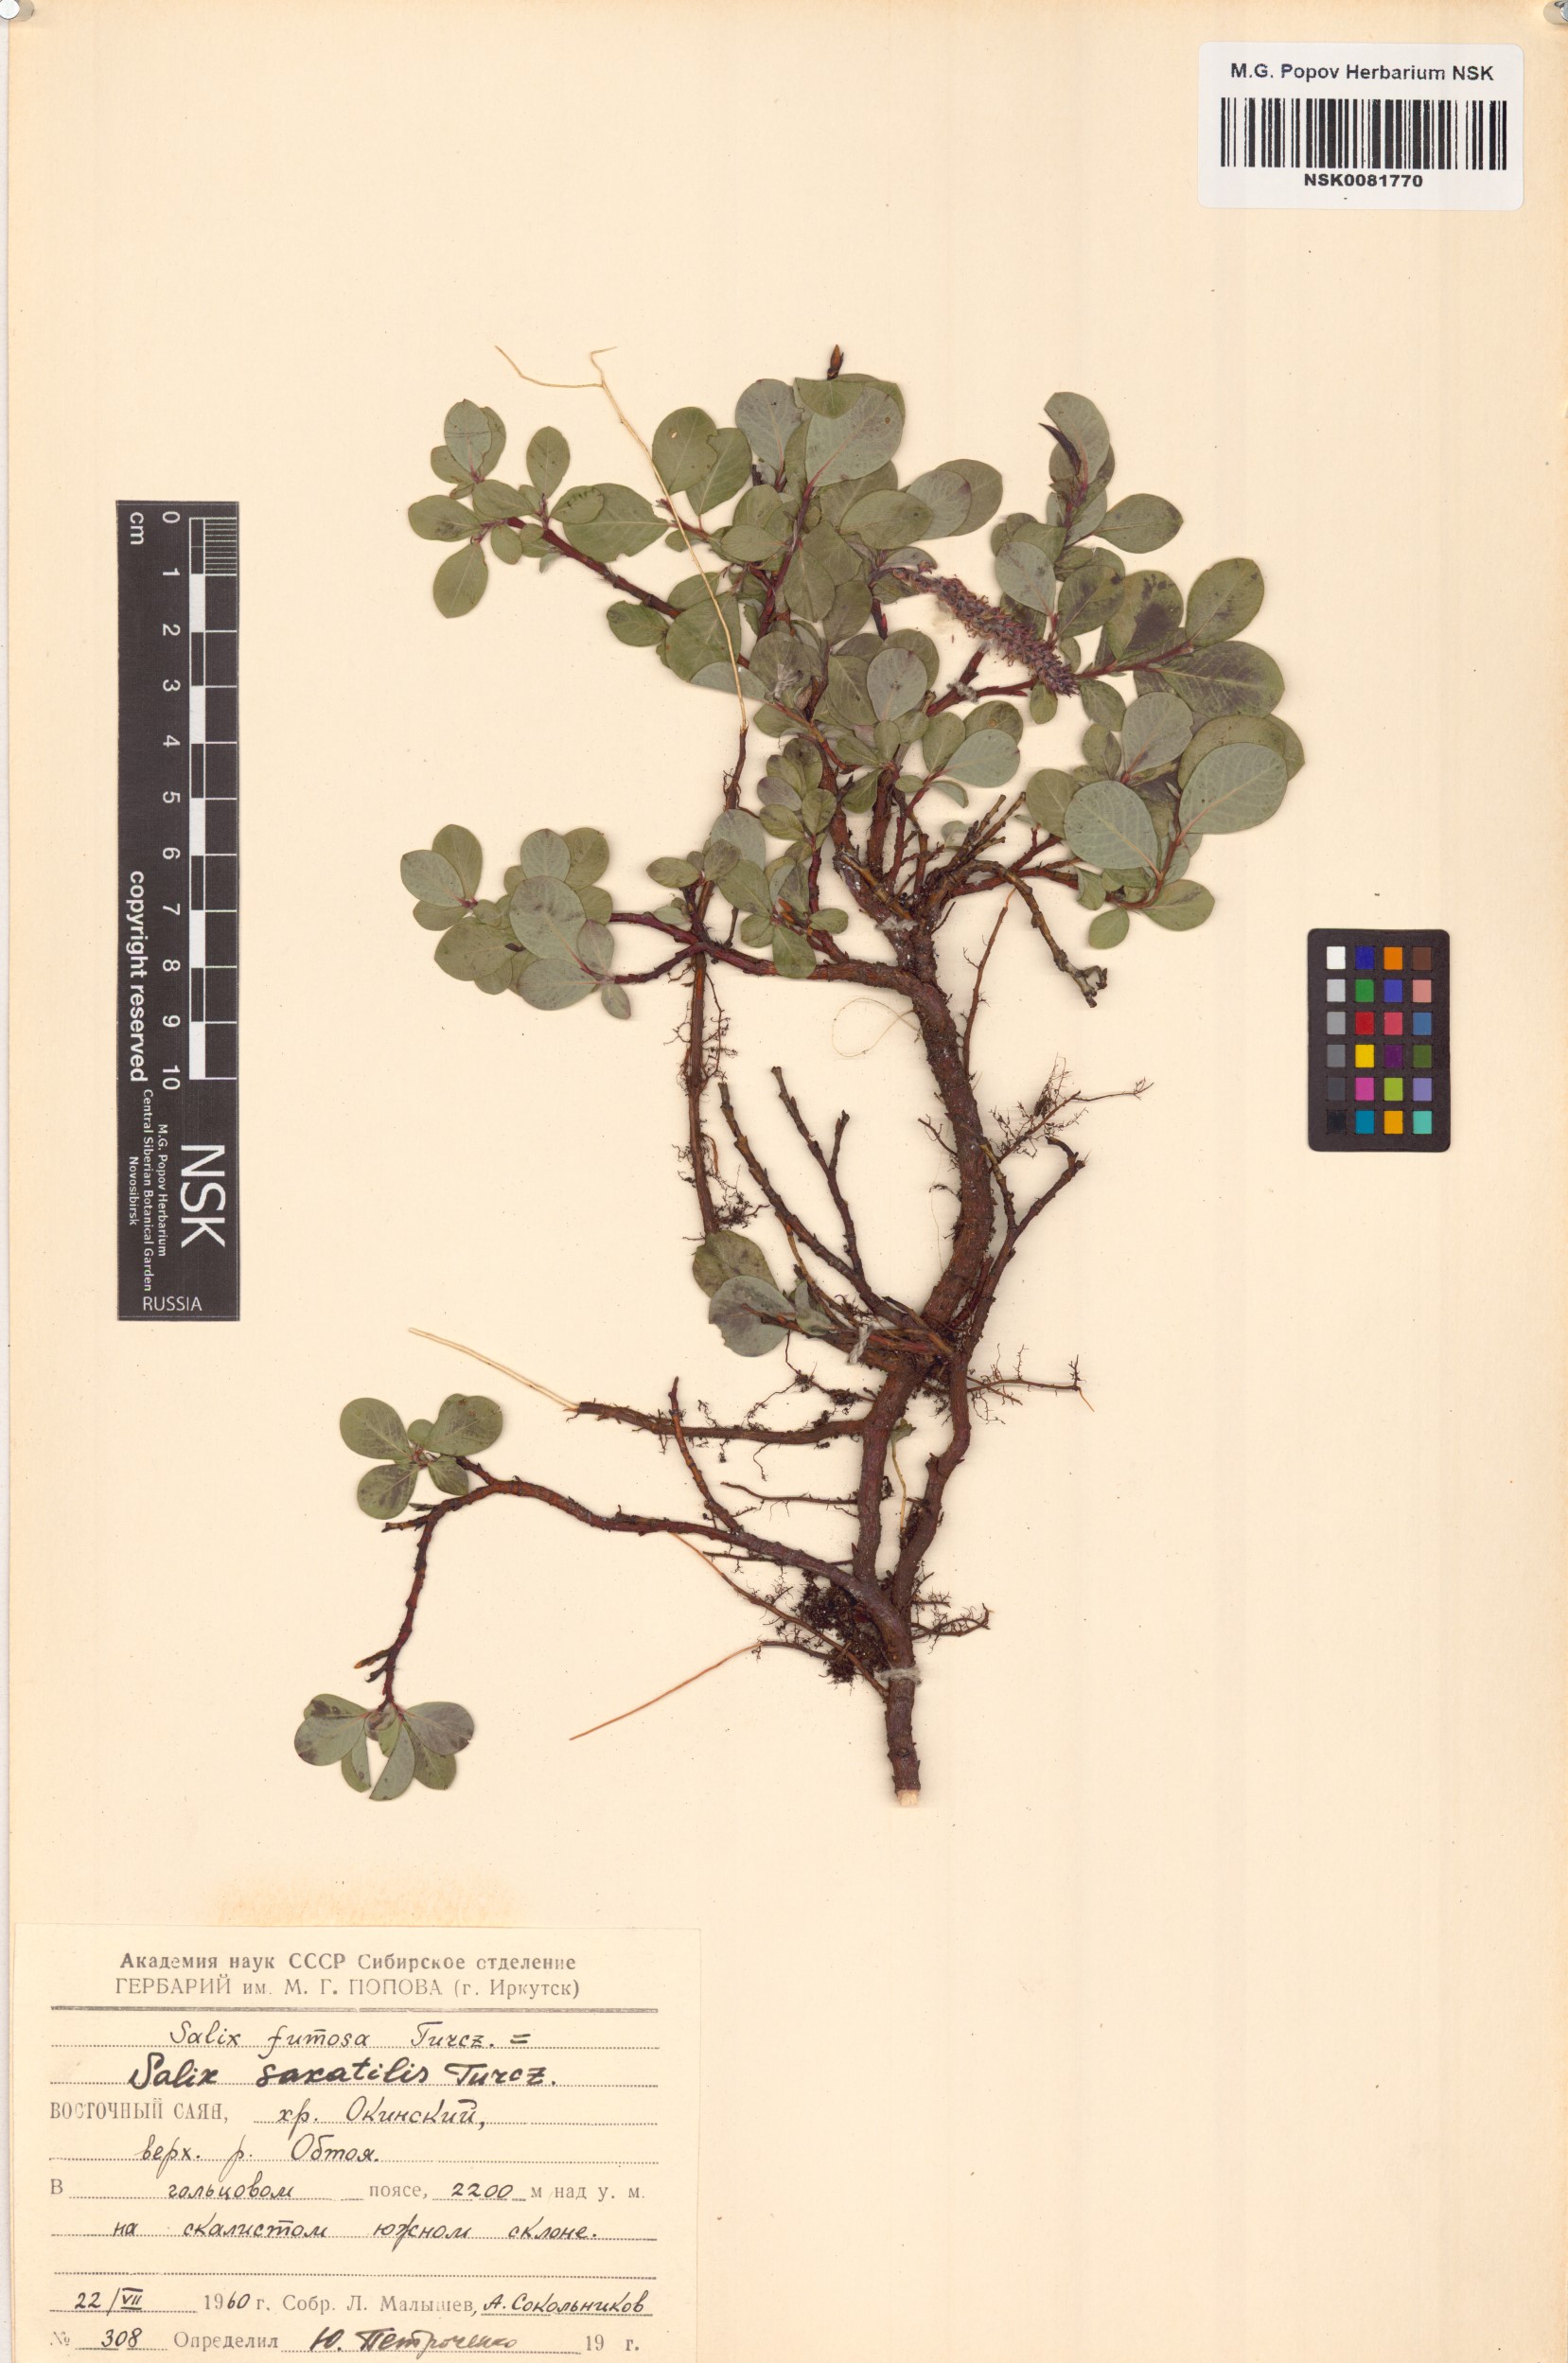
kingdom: Plantae
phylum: Tracheophyta
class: Magnoliopsida
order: Malpighiales
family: Salicaceae
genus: Salix
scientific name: Salix saxatilis
